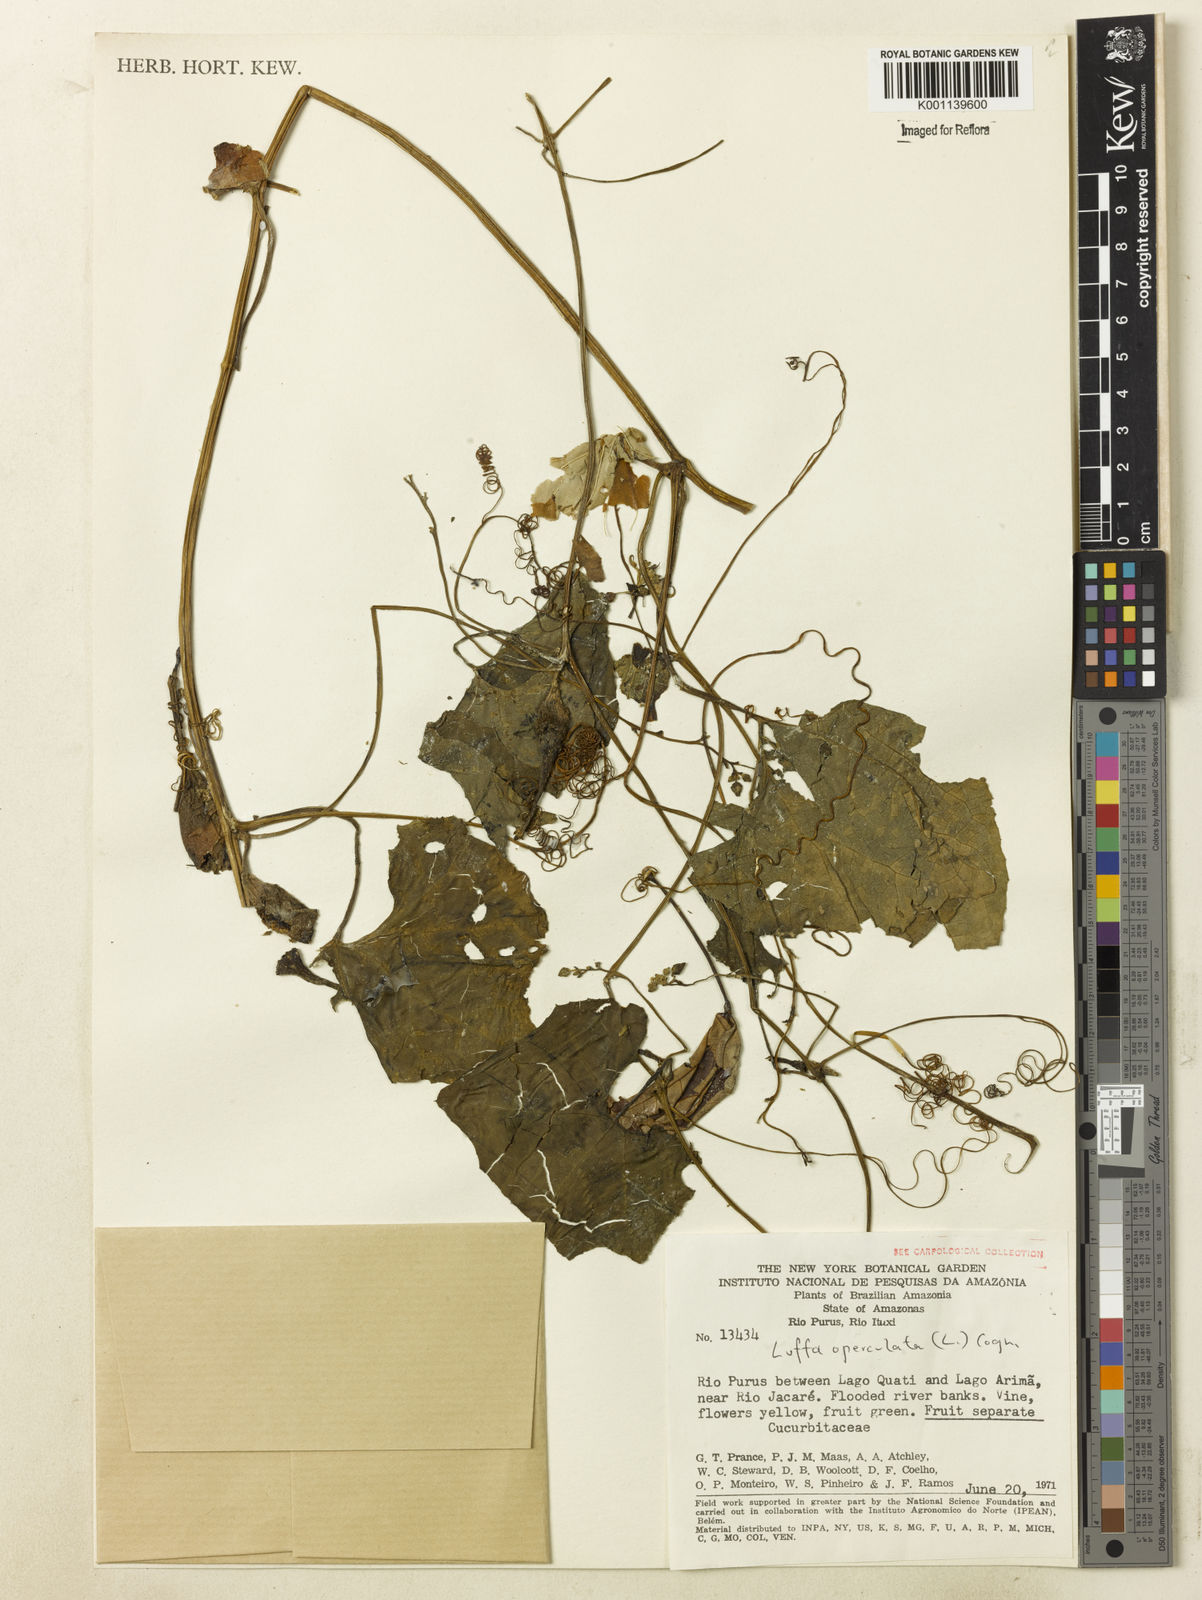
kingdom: Plantae
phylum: Tracheophyta
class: Magnoliopsida
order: Cucurbitales
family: Cucurbitaceae
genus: Luffa
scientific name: Luffa operculata
